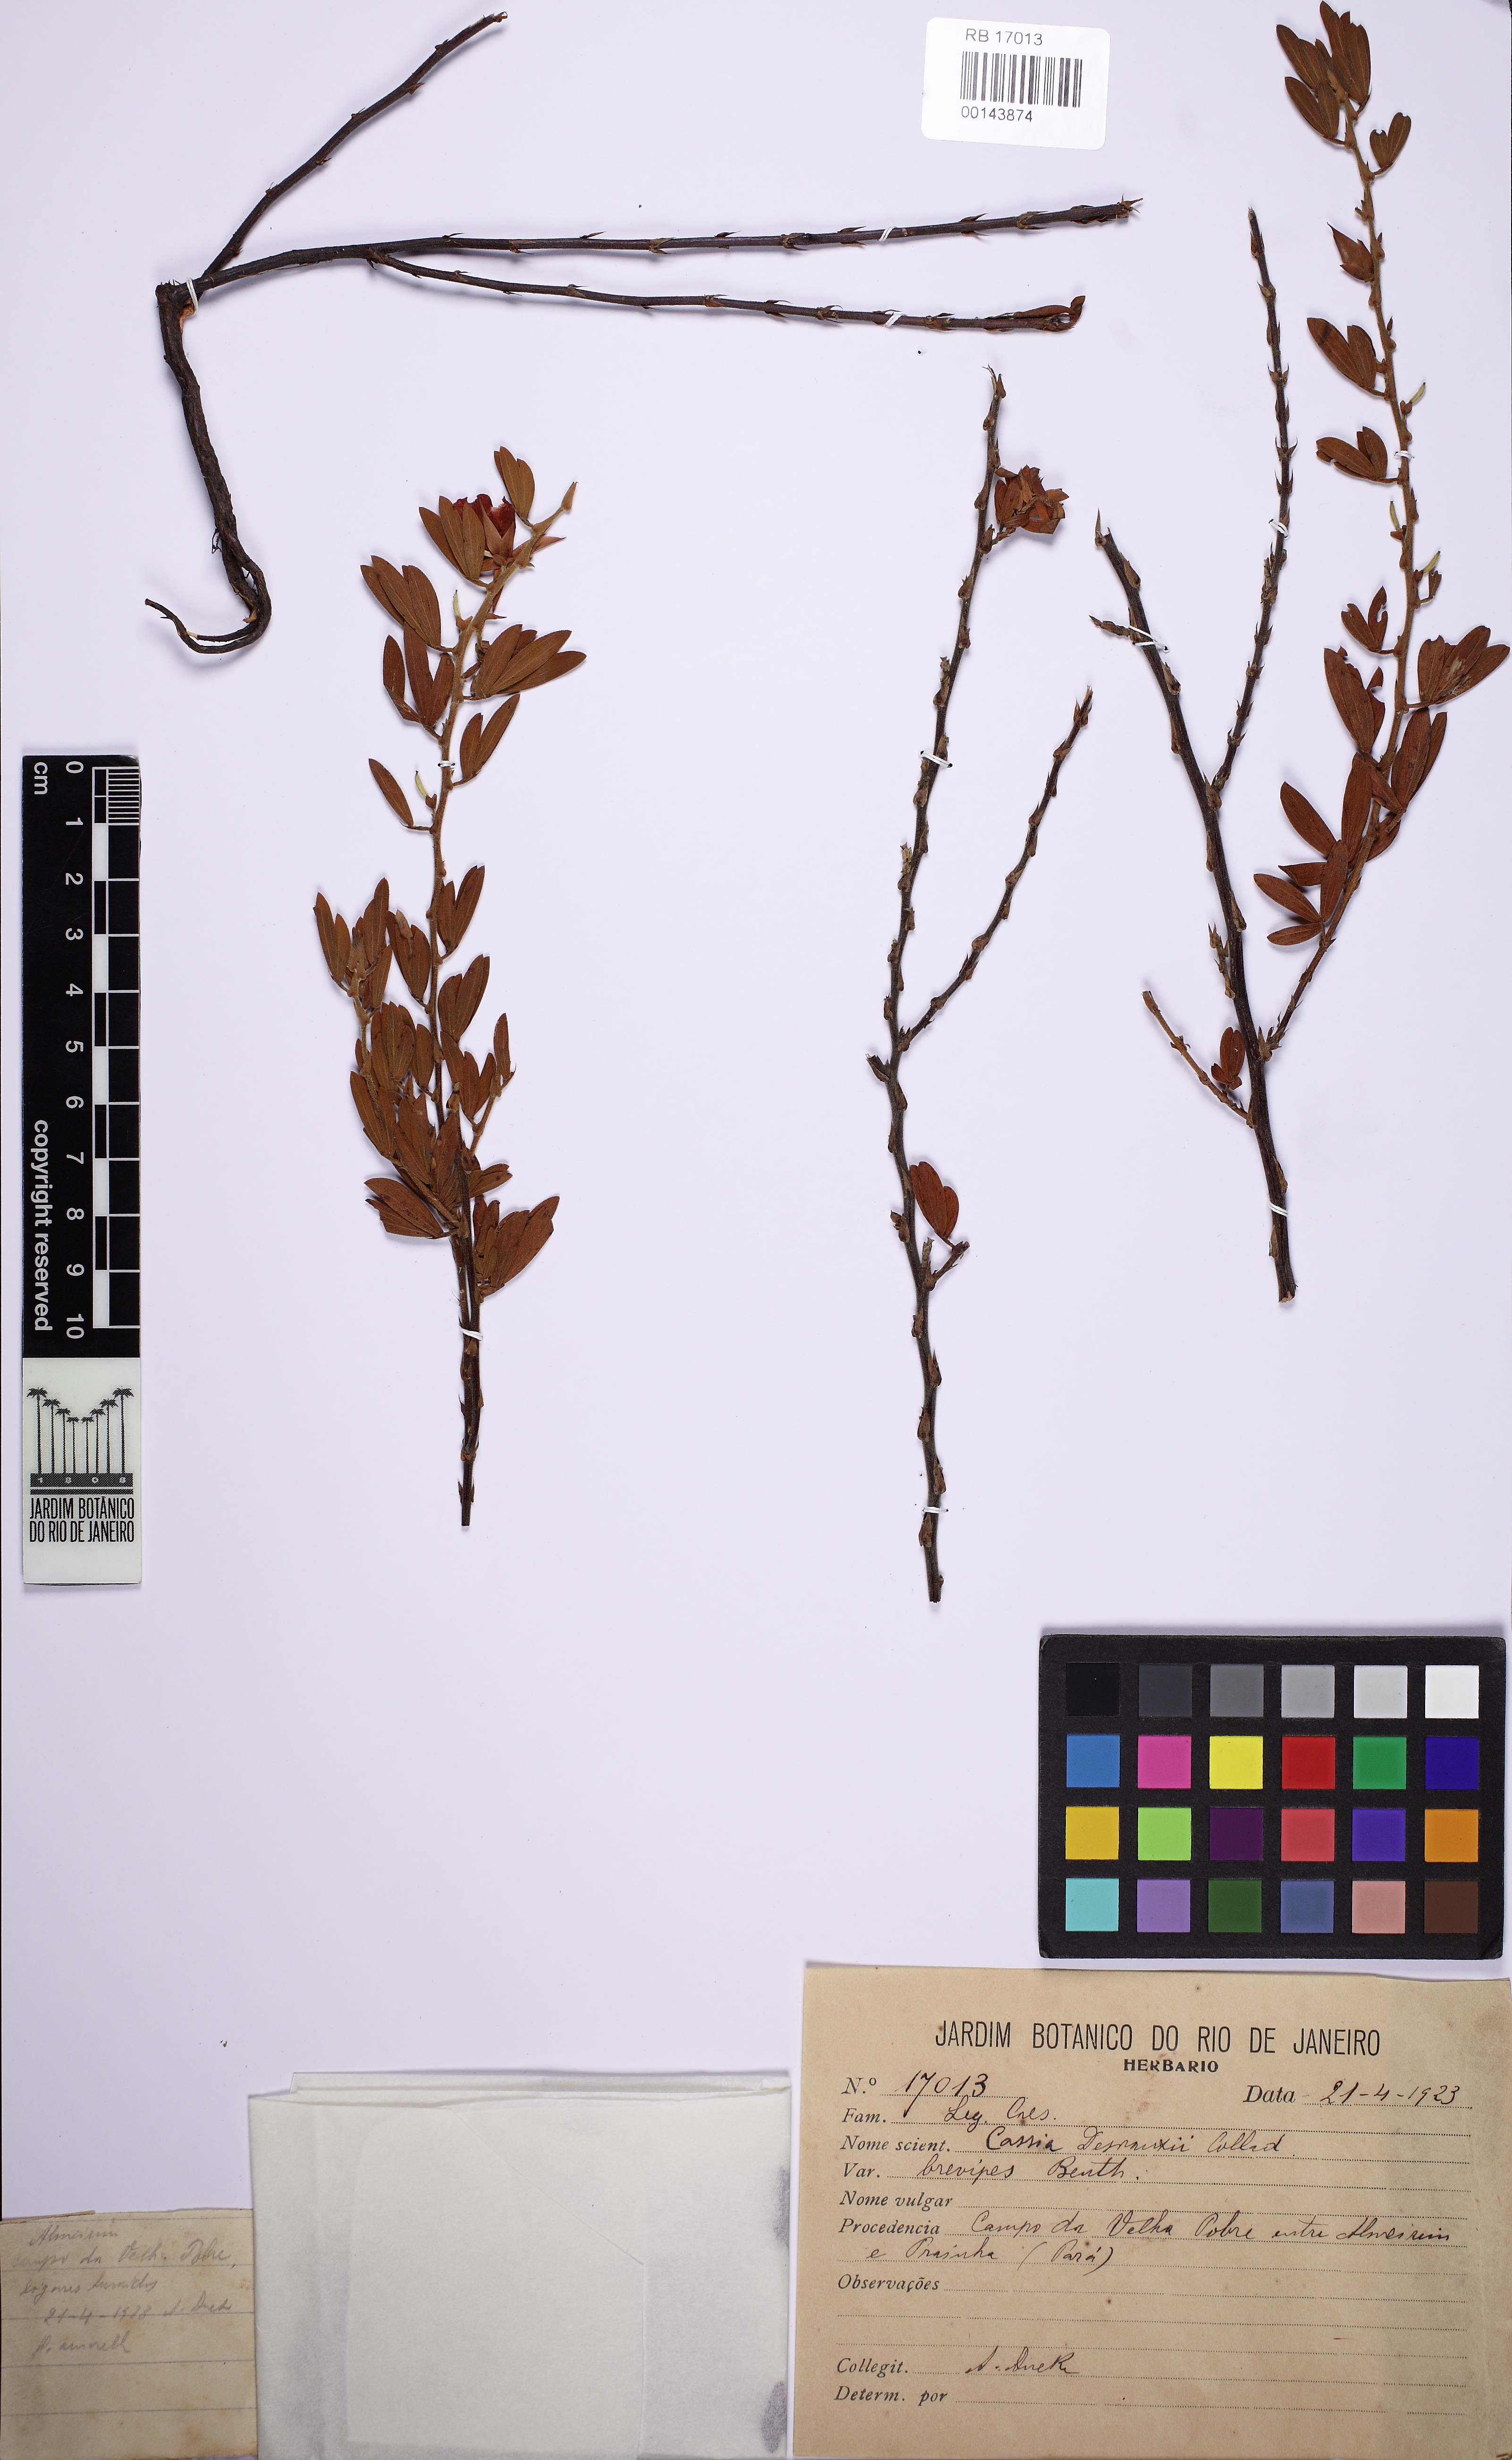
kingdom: Plantae
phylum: Tracheophyta
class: Magnoliopsida
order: Fabales
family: Fabaceae
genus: Chamaecrista
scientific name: Chamaecrista desvauxii
